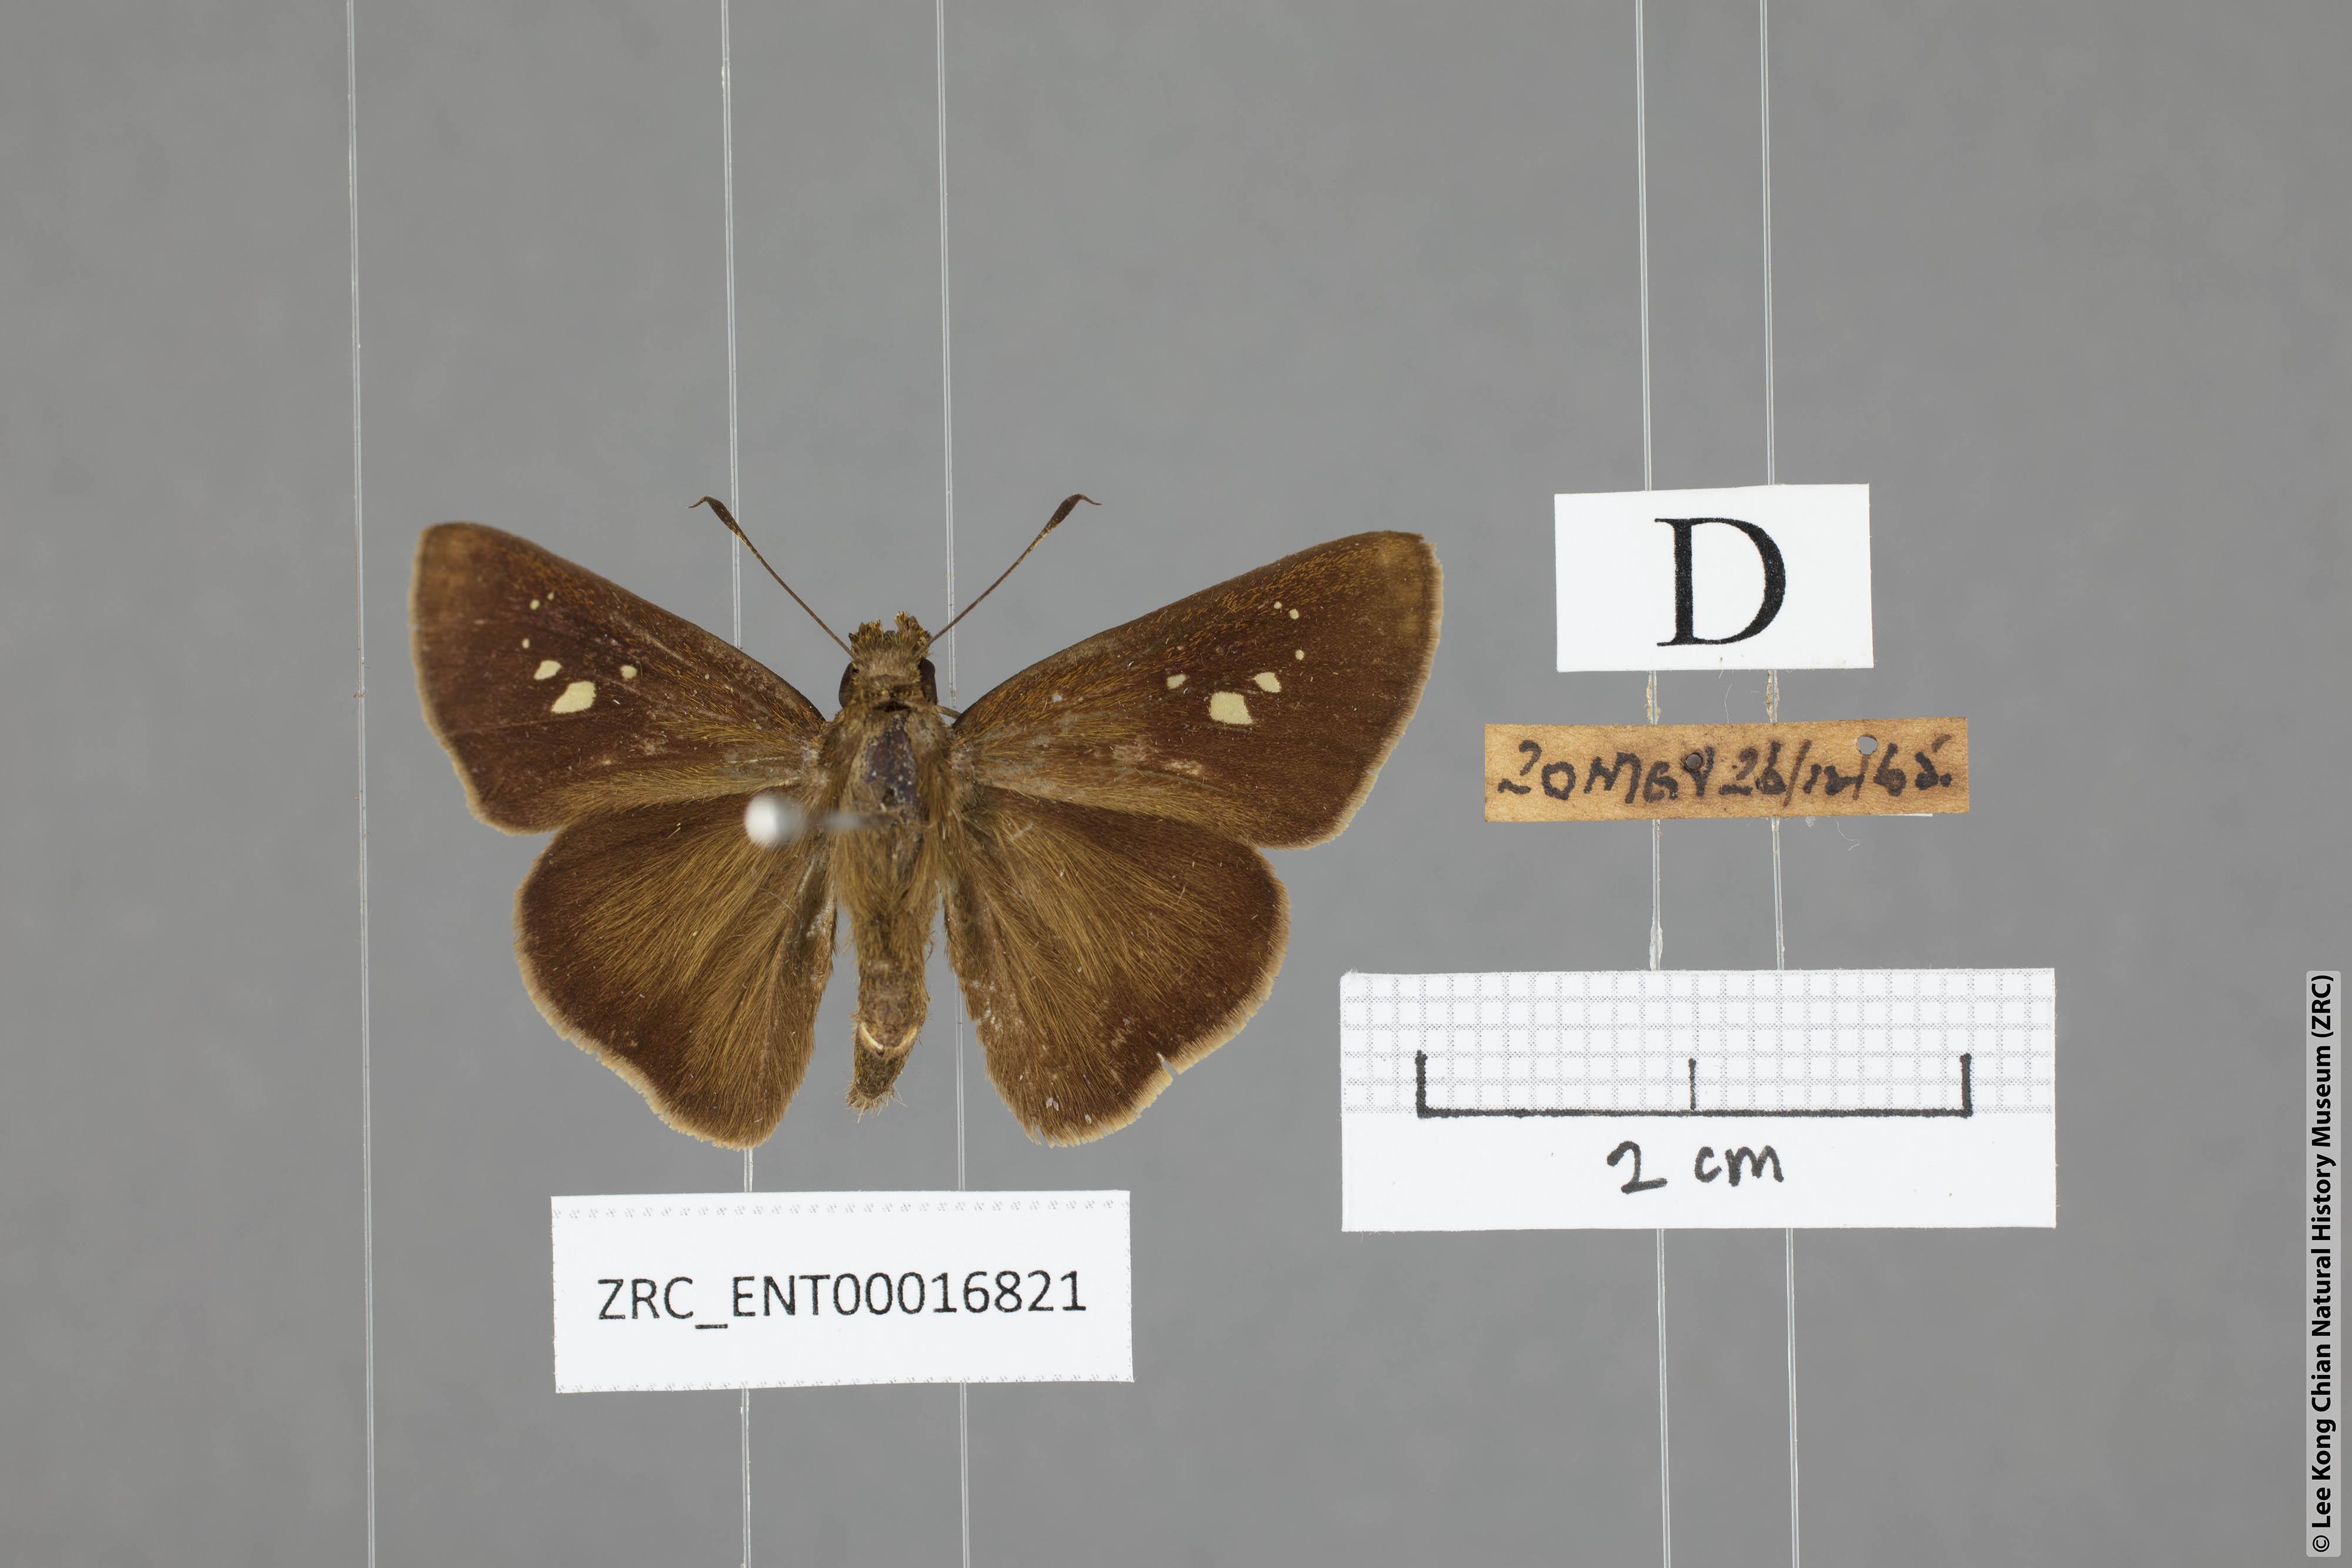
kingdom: Animalia
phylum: Arthropoda
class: Insecta
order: Lepidoptera
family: Hesperiidae
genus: Caltoris
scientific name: Caltoris cormasa
